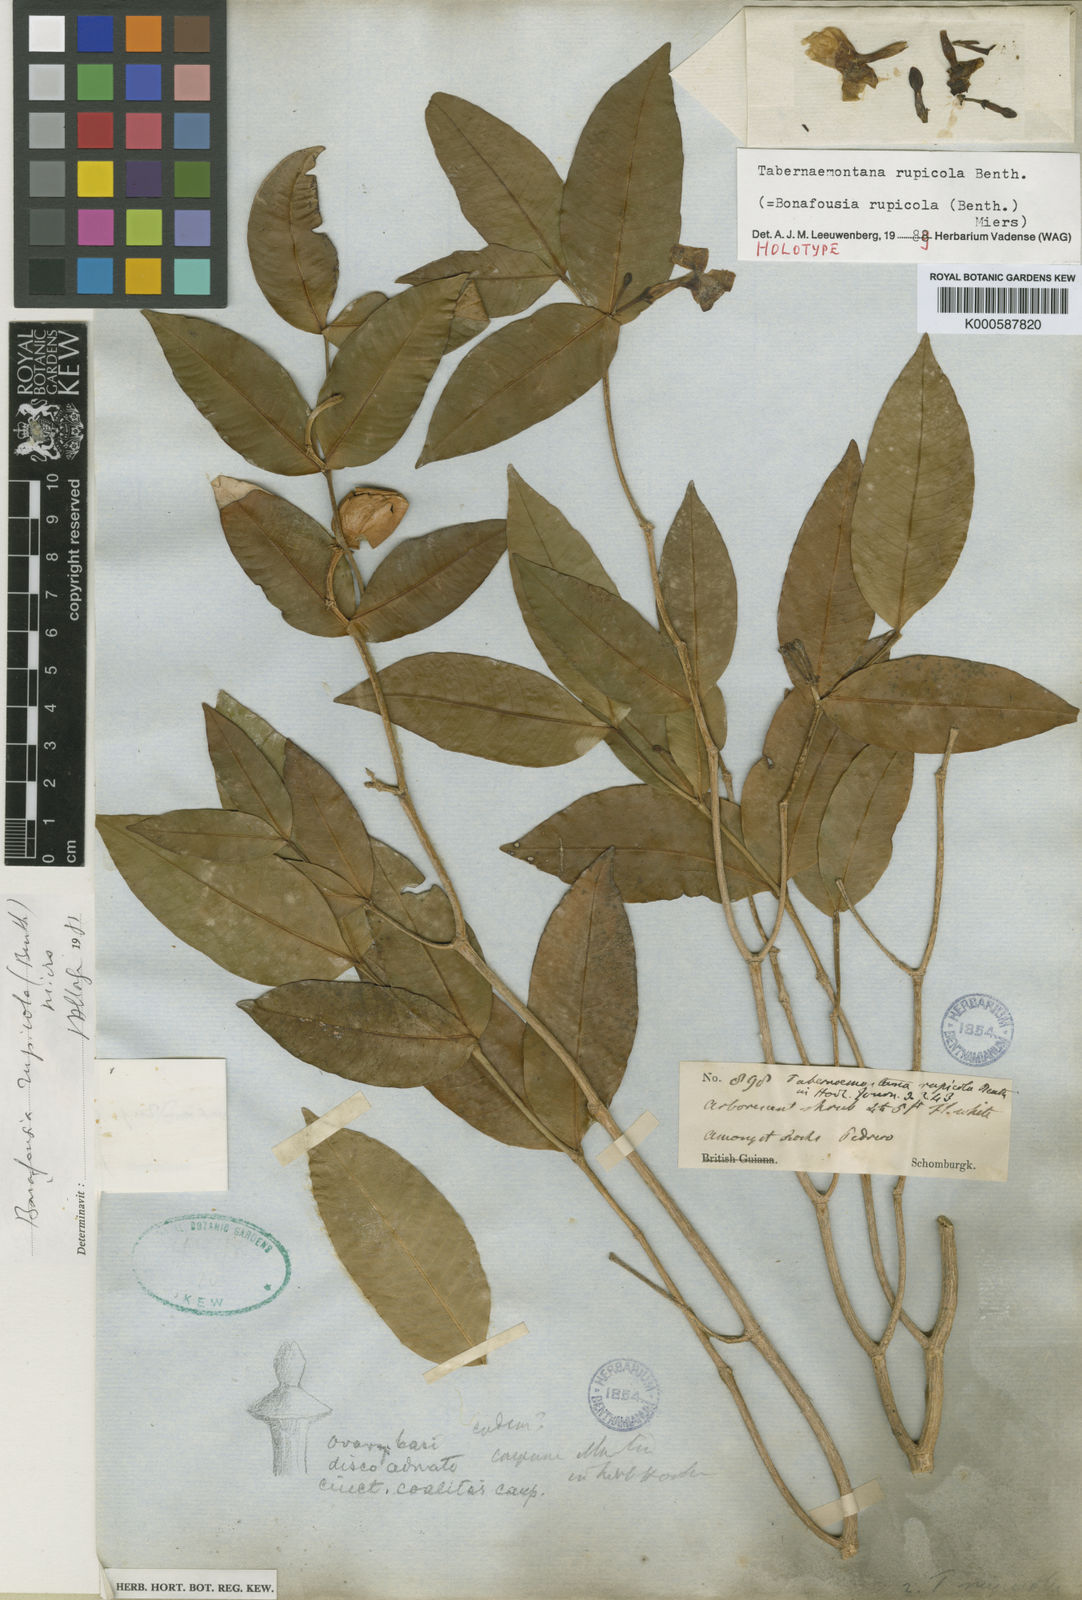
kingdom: Plantae
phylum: Tracheophyta
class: Magnoliopsida
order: Gentianales
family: Apocynaceae
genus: Tabernaemontana
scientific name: Tabernaemontana rupicola
